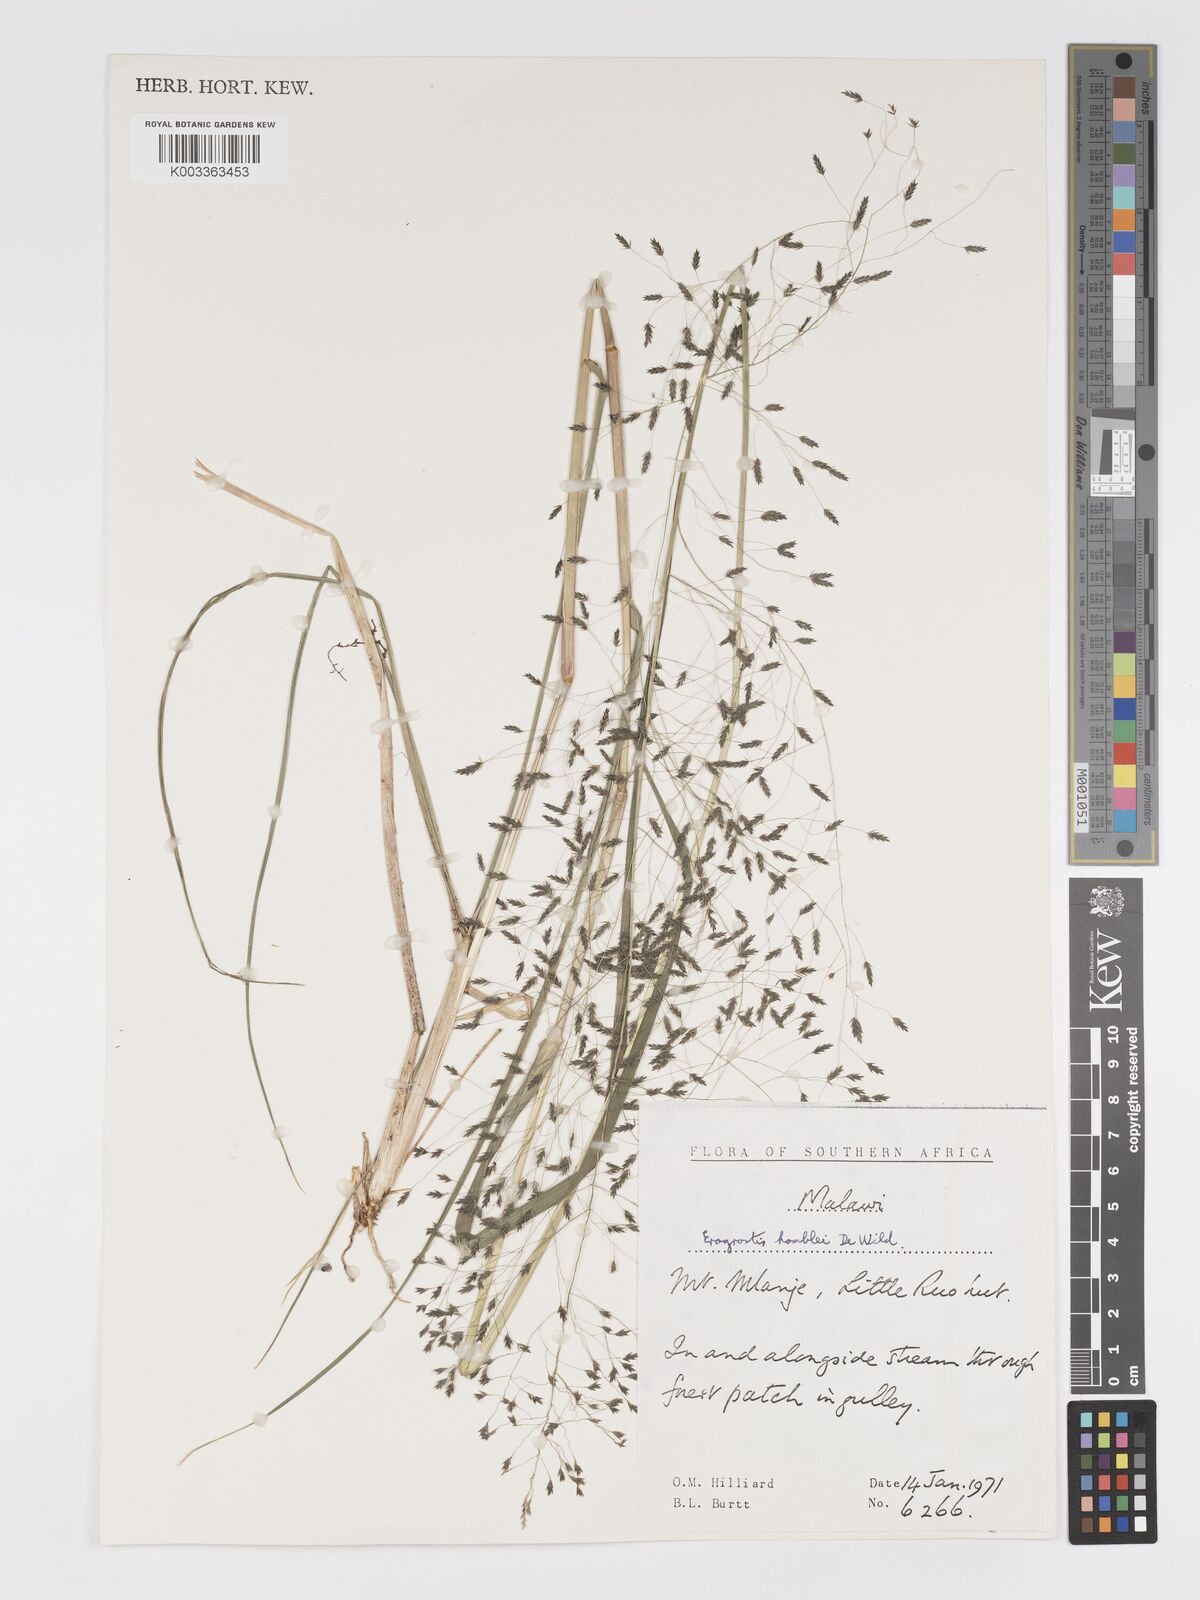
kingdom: Plantae
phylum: Tracheophyta
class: Liliopsida
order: Poales
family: Poaceae
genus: Eragrostis
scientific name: Eragrostis homblei
